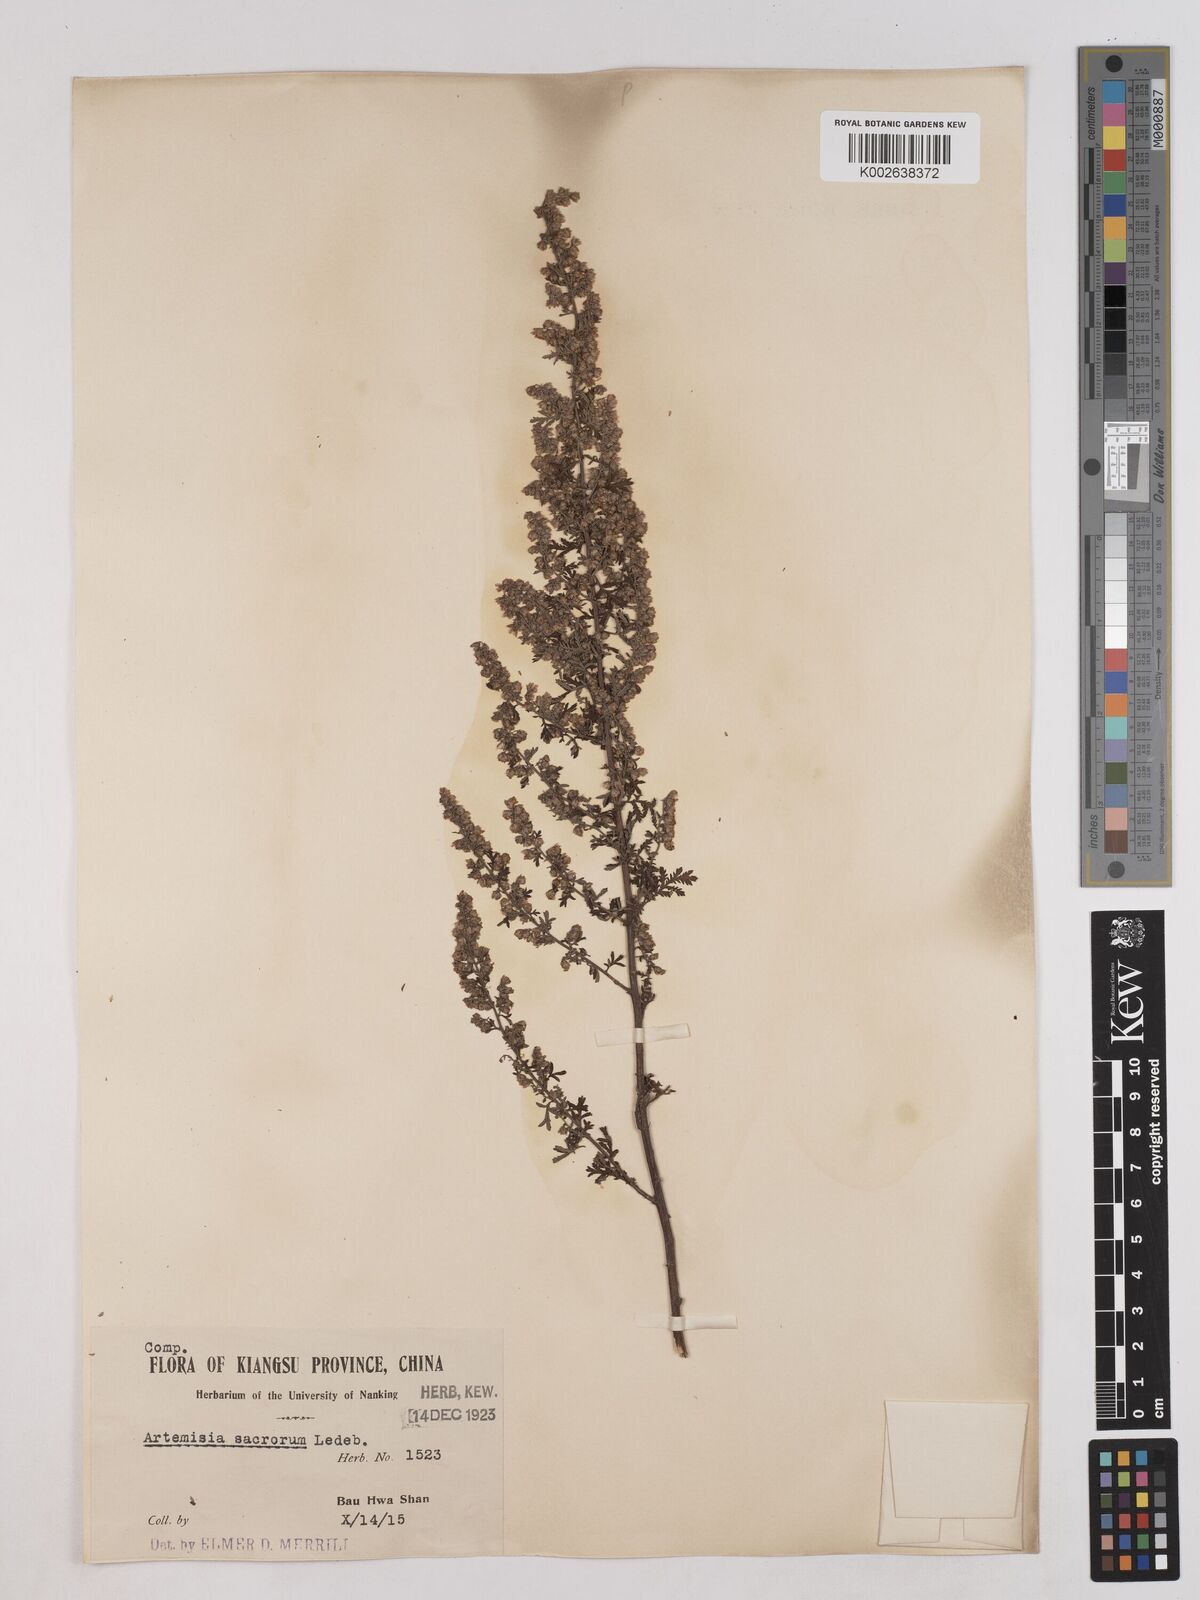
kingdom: Plantae
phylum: Tracheophyta
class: Magnoliopsida
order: Asterales
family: Asteraceae
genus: Artemisia
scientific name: Artemisia gmelinii
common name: Gmelin's wormwood
